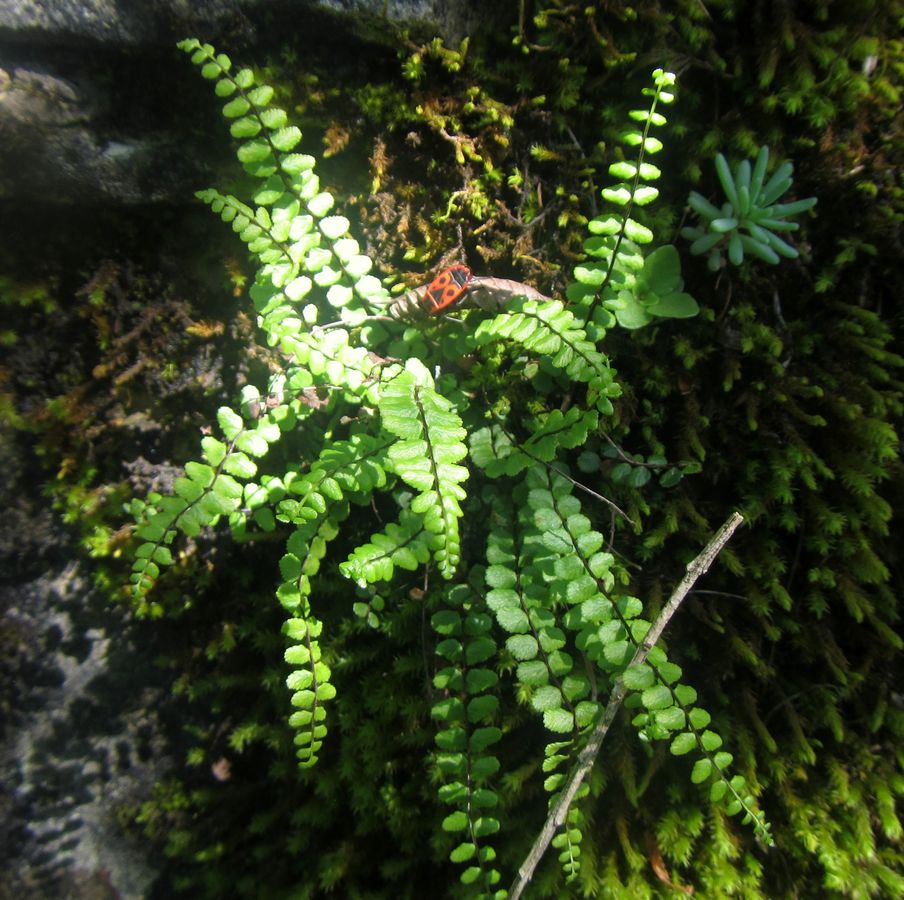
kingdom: Plantae
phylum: Tracheophyta
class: Polypodiopsida
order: Polypodiales
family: Aspleniaceae
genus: Asplenium
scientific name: Asplenium trichomanes
